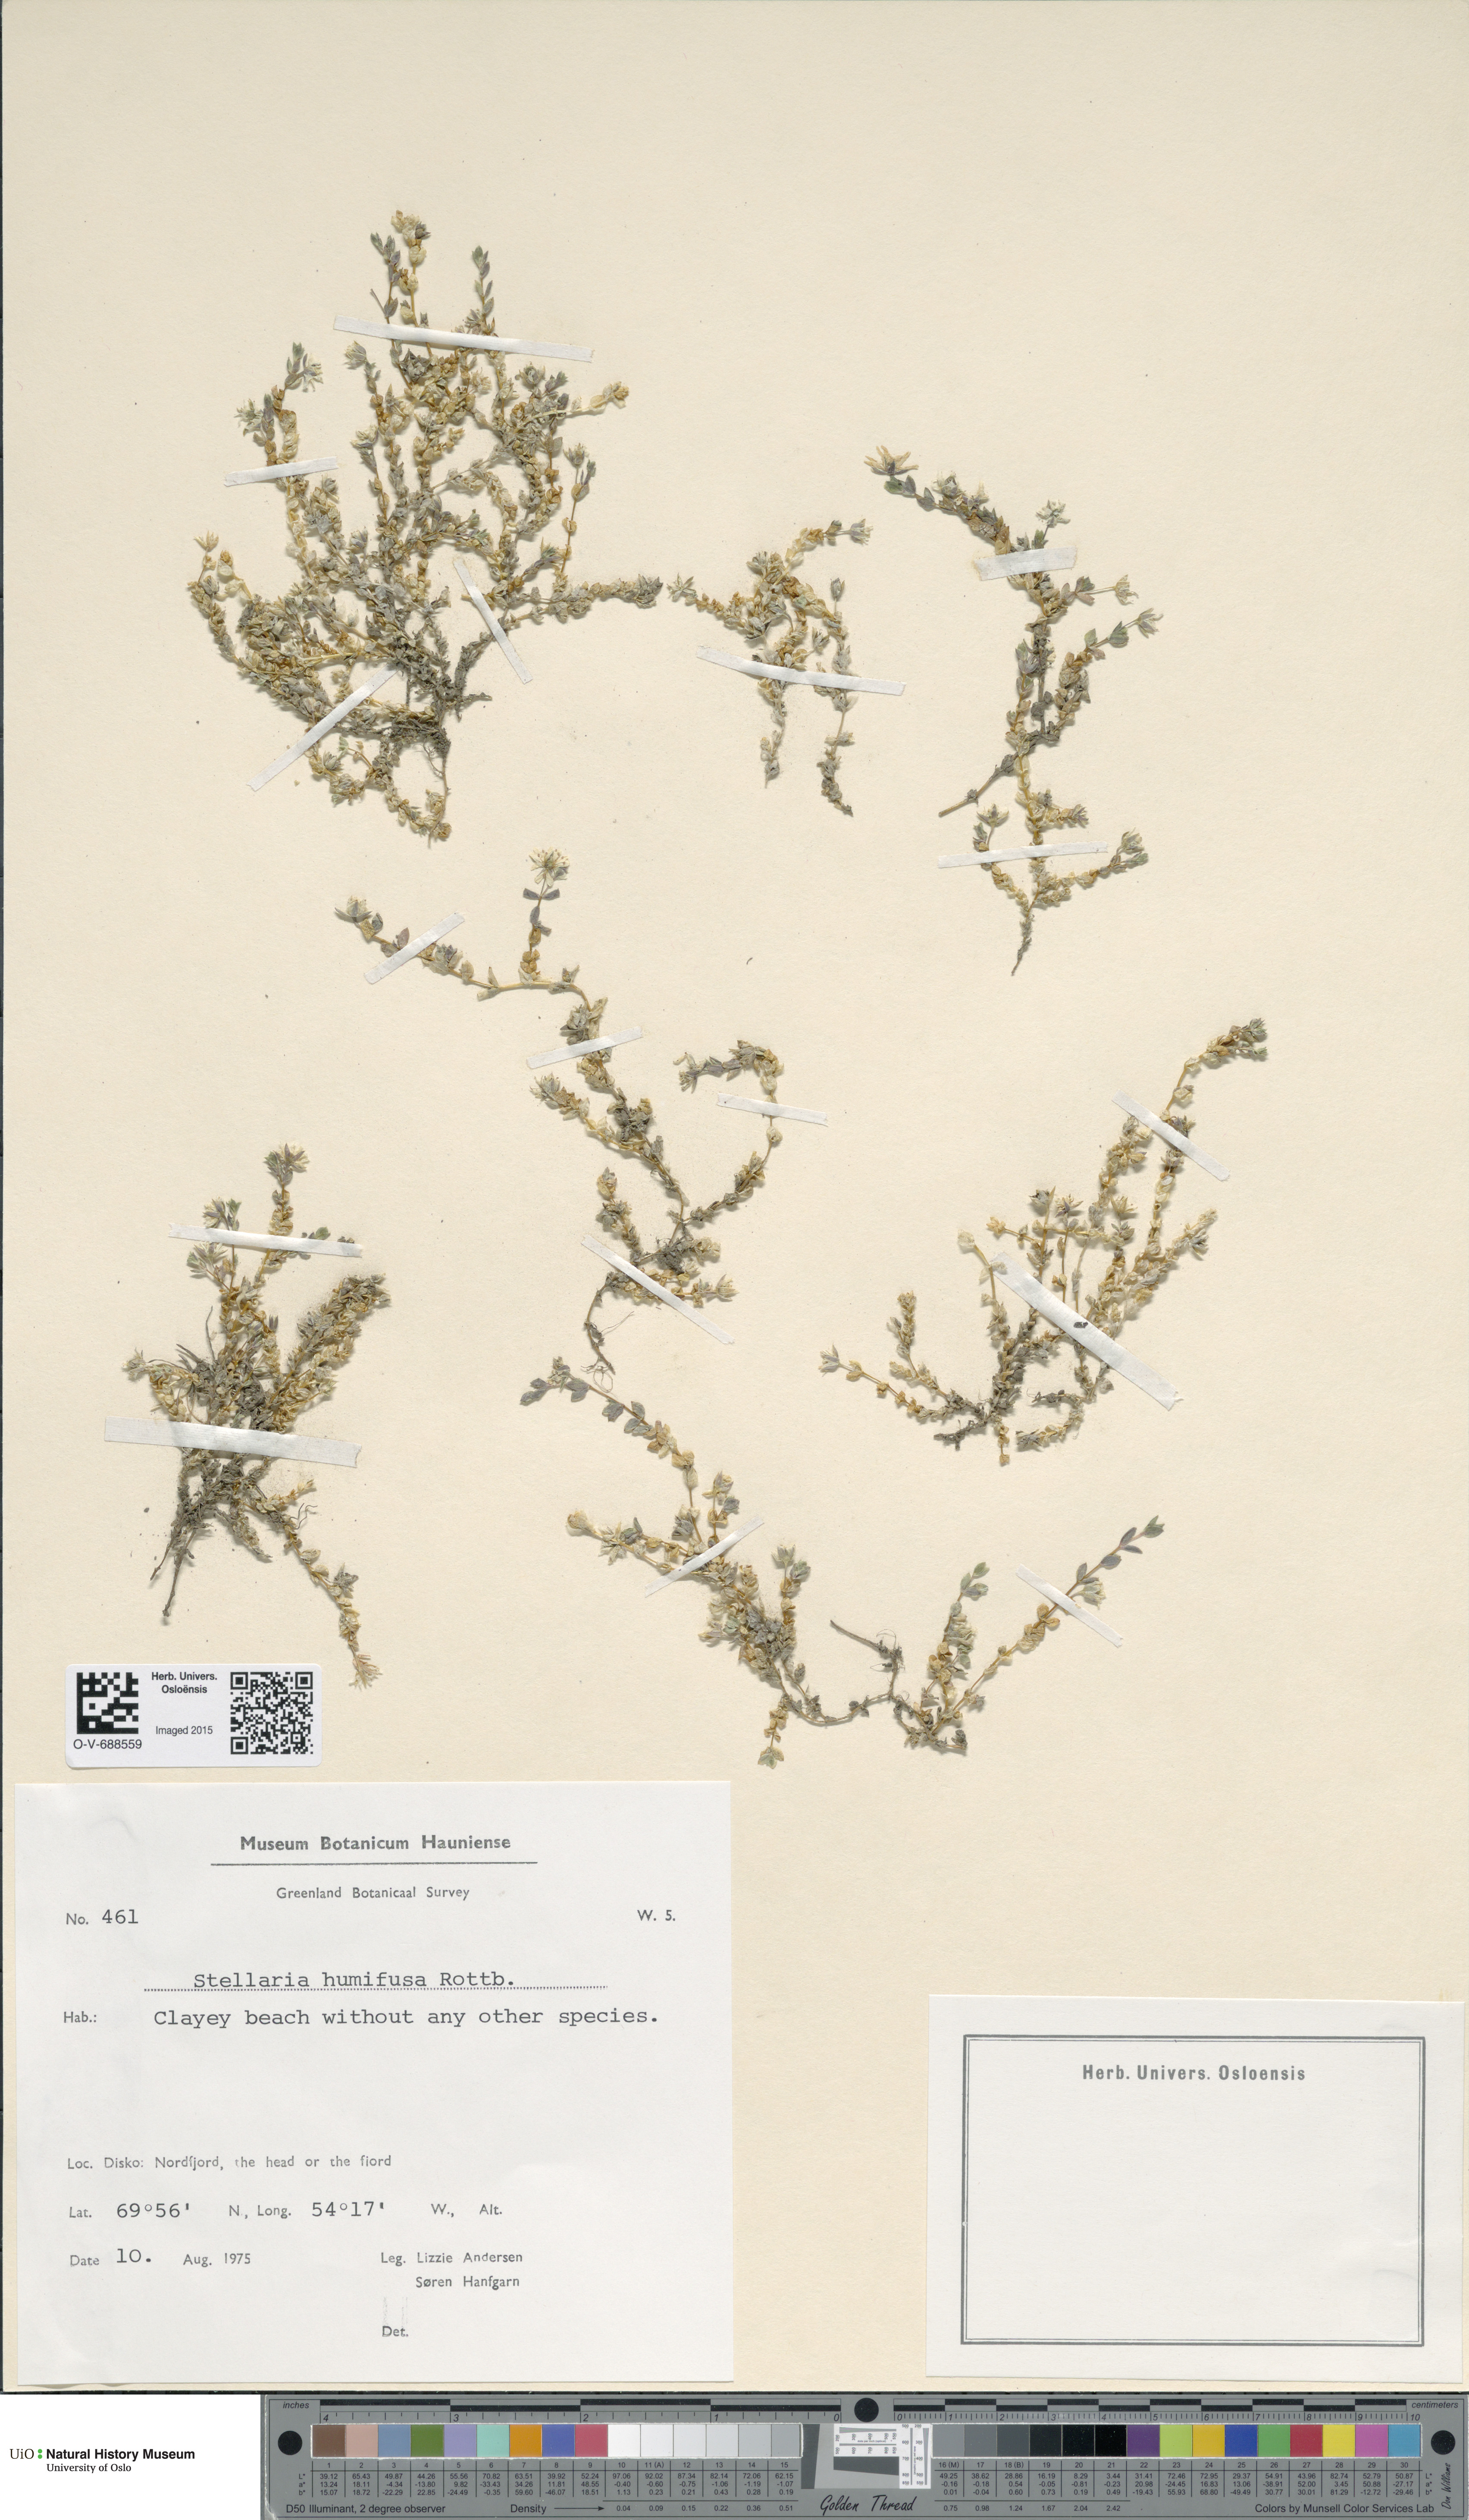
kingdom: Plantae
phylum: Tracheophyta
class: Magnoliopsida
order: Caryophyllales
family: Caryophyllaceae
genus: Stellaria
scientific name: Stellaria humifusa
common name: Creeping starwort
